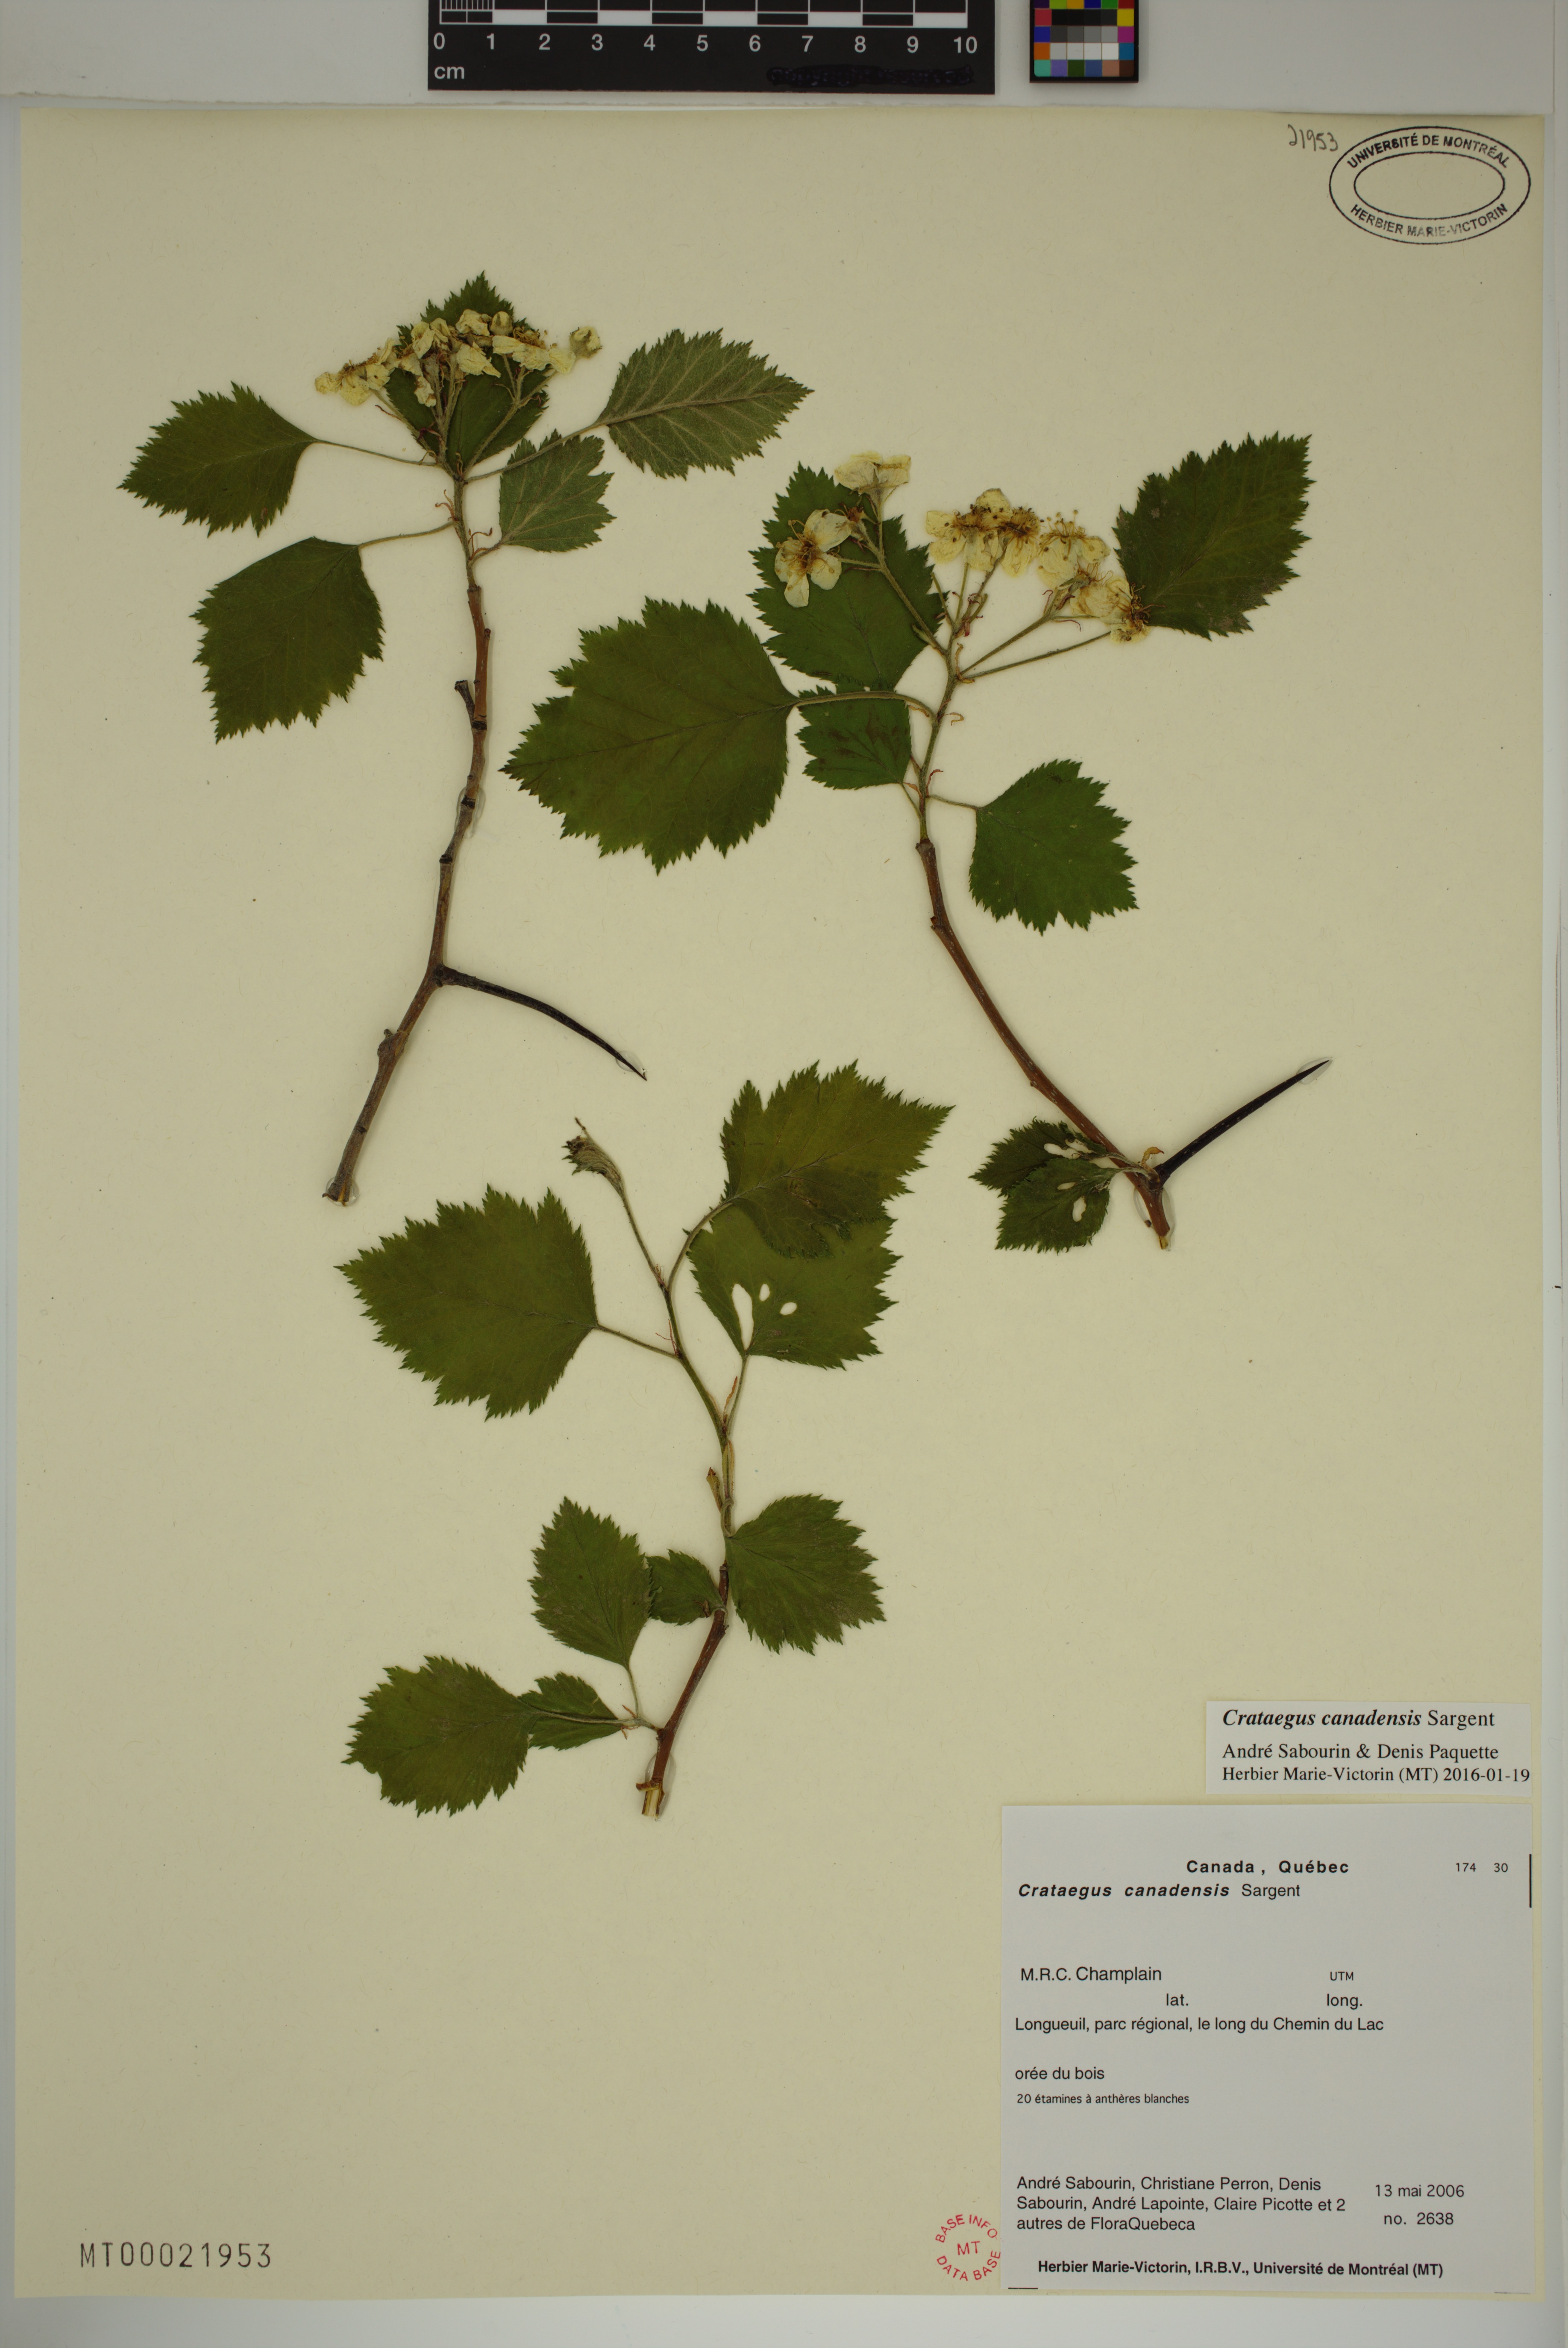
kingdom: Plantae
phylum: Tracheophyta
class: Magnoliopsida
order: Rosales
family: Rosaceae
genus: Crataegus
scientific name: Crataegus submollis
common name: Hairy cockspurthorn
